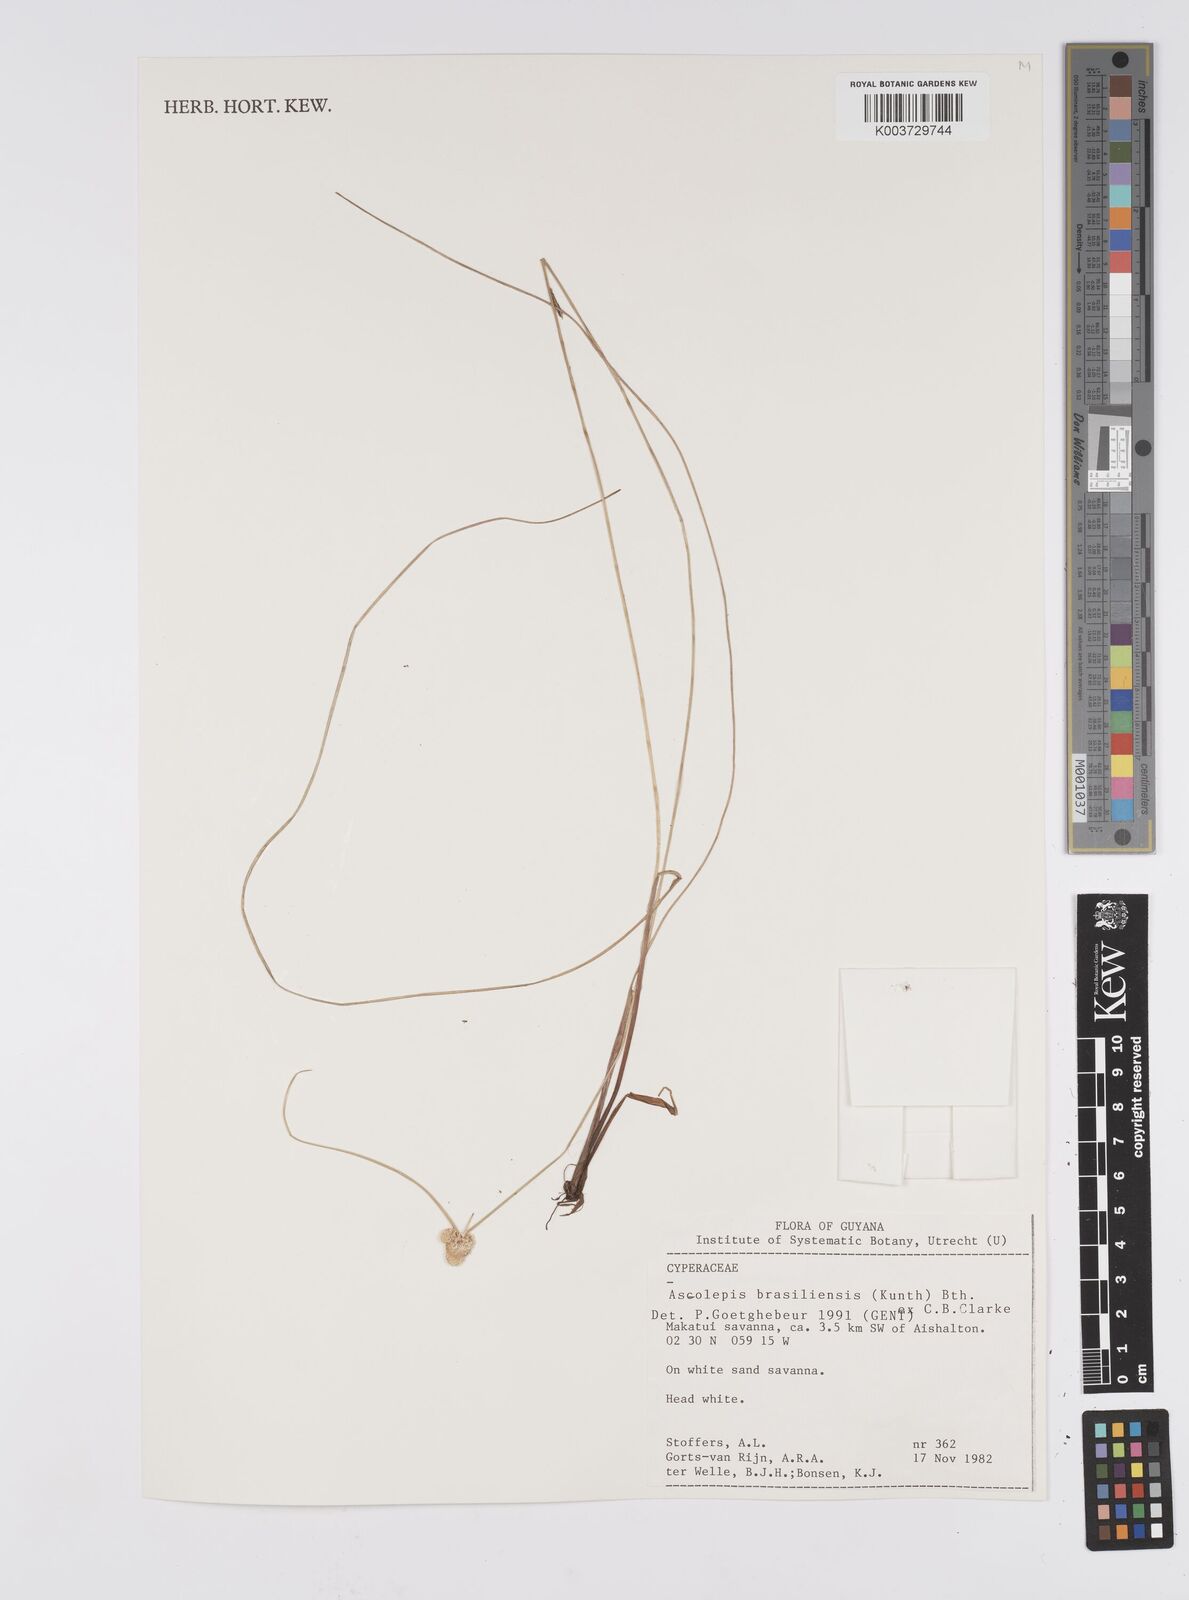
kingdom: Plantae
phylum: Tracheophyta
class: Liliopsida
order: Poales
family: Cyperaceae
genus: Cyperus
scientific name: Cyperus brasiliensis
